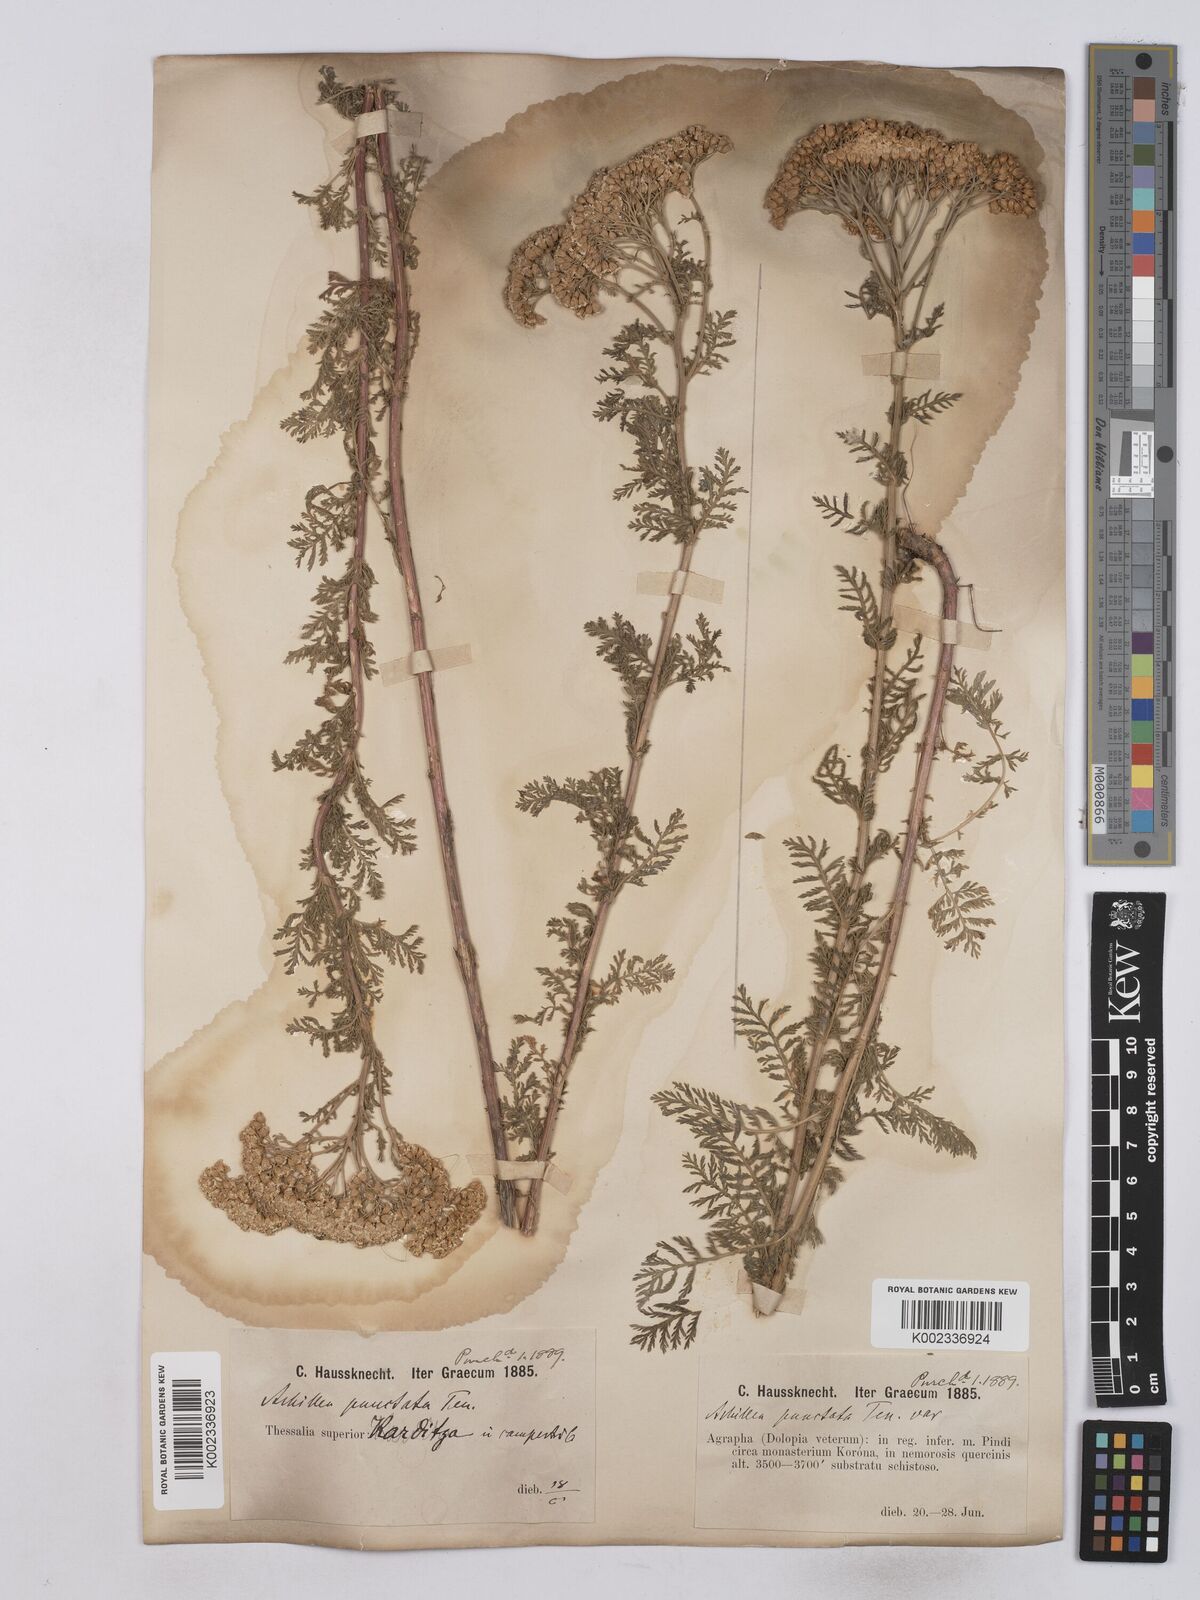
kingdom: Plantae
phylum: Tracheophyta
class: Magnoliopsida
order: Asterales
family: Asteraceae
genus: Achillea
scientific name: Achillea odorata
